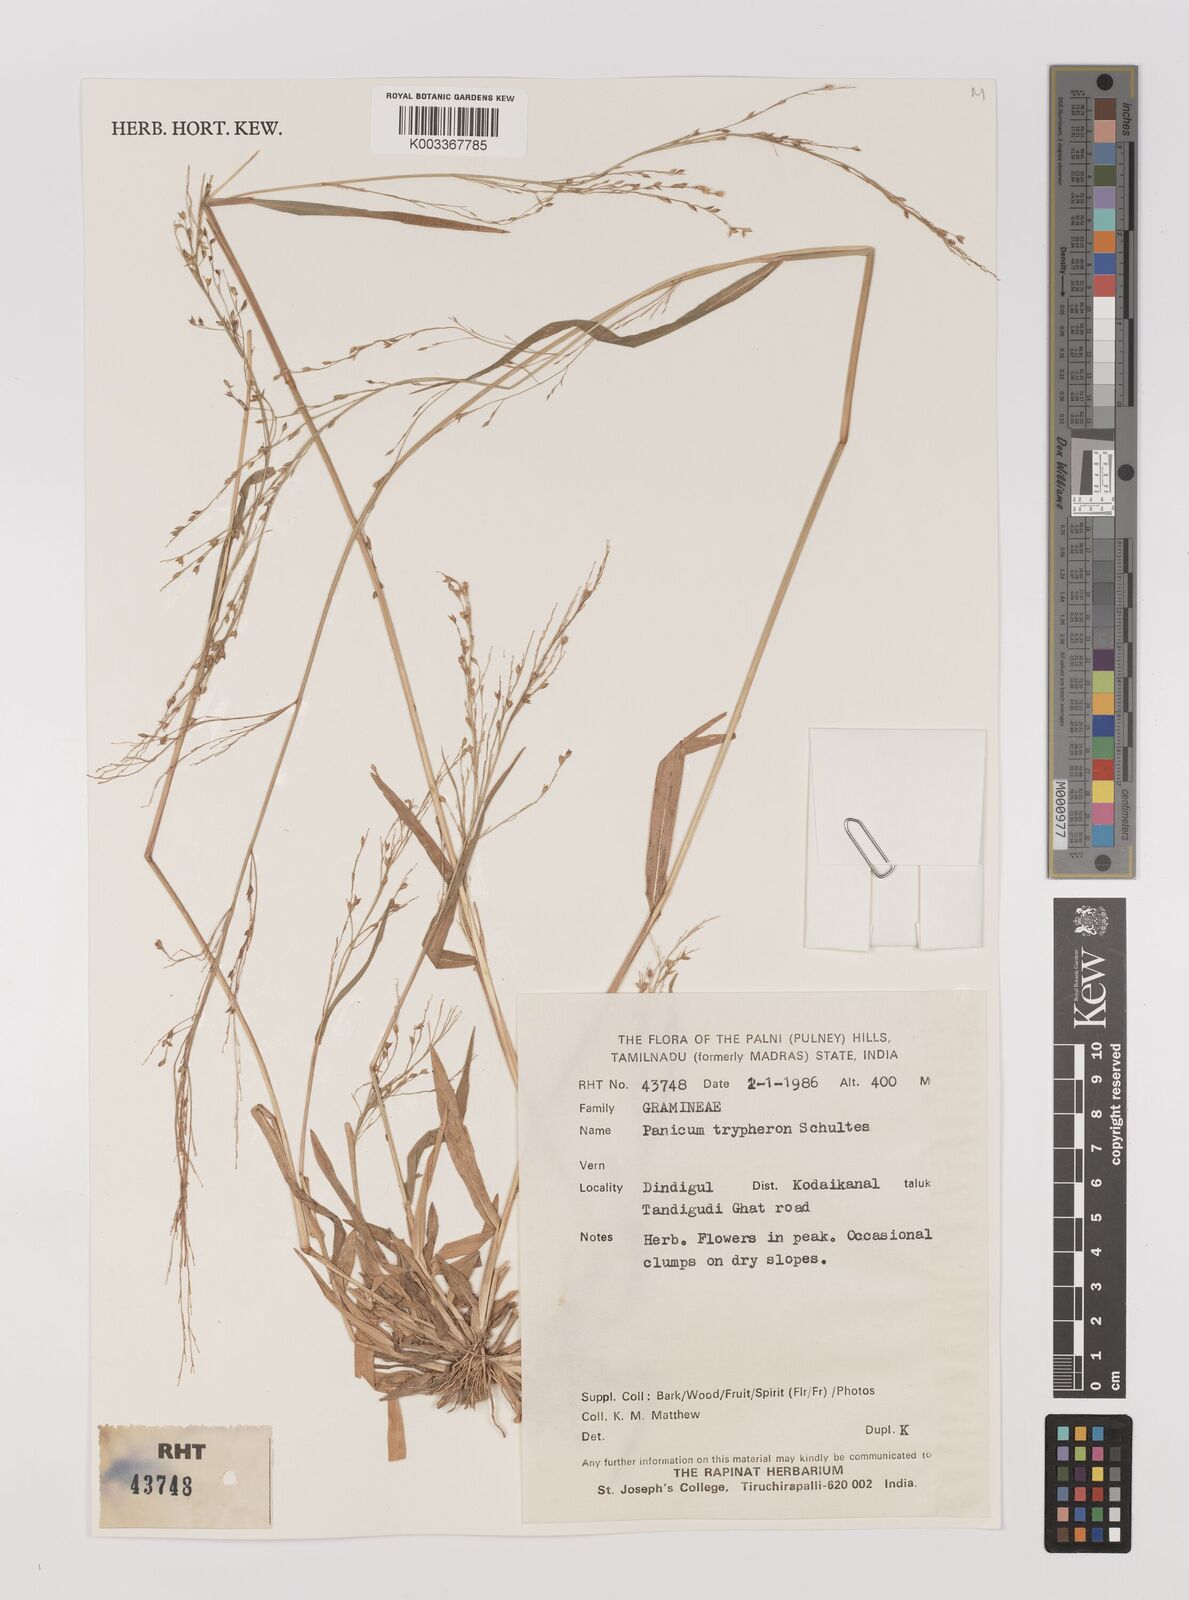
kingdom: Plantae
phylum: Tracheophyta
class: Liliopsida
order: Poales
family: Poaceae
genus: Panicum
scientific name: Panicum curviflorum
